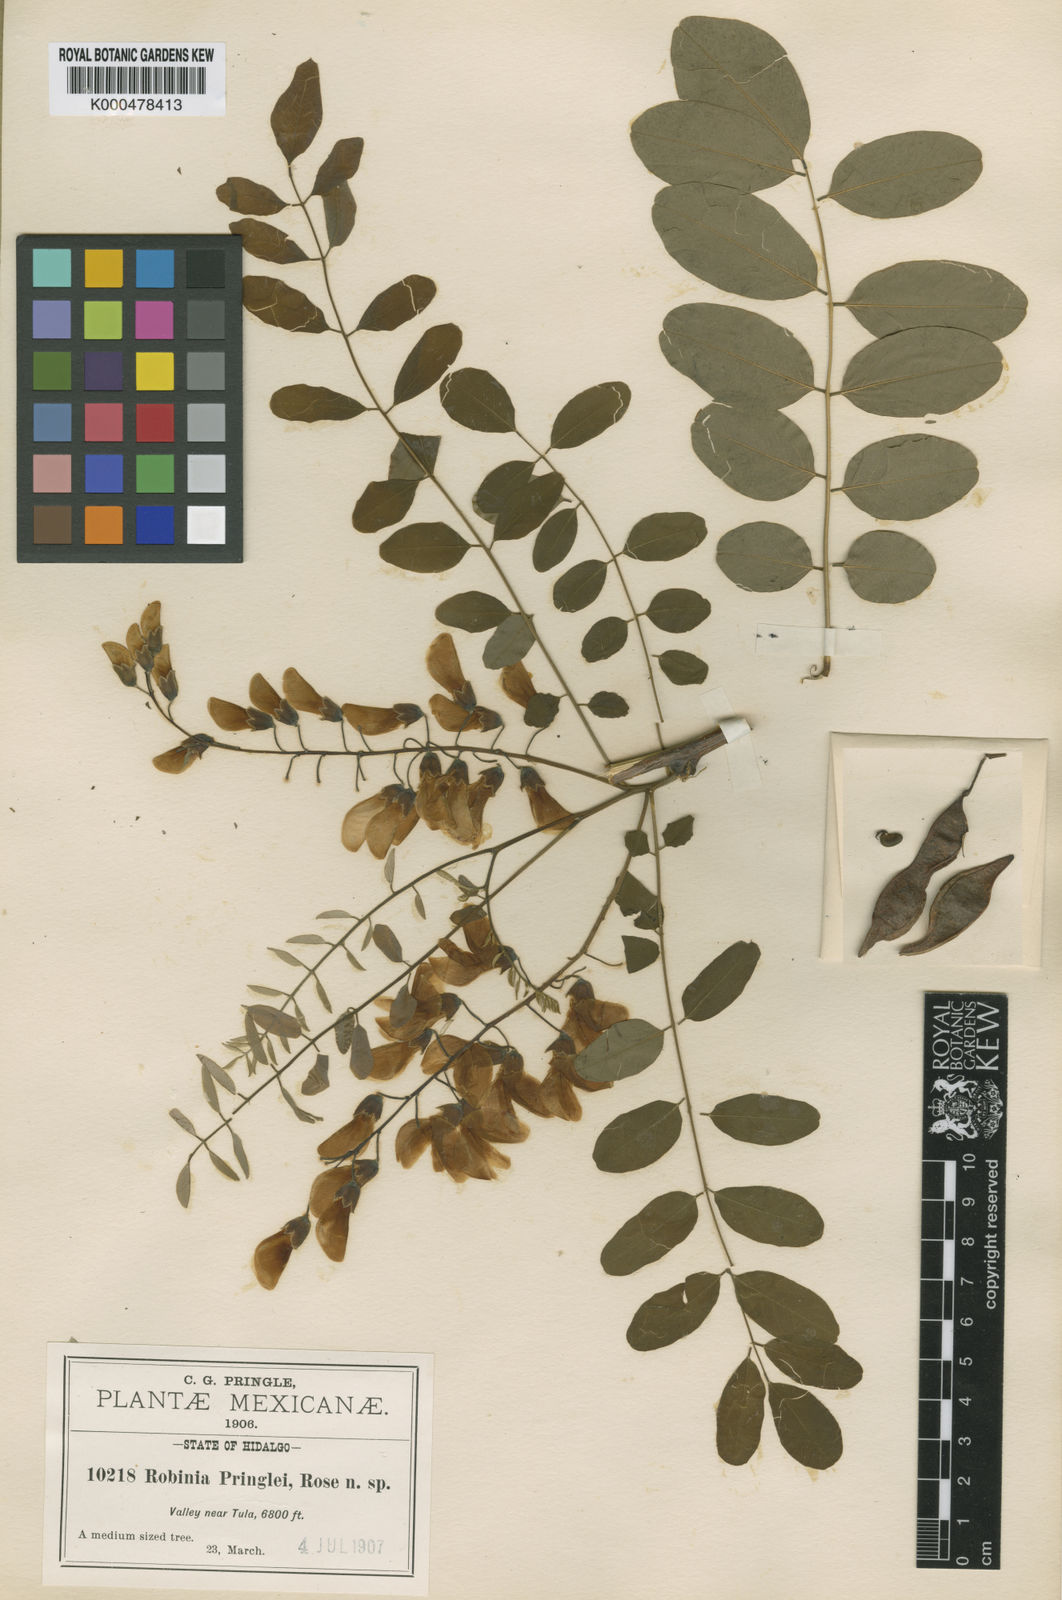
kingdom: Plantae
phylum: Tracheophyta
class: Magnoliopsida
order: Fabales
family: Fabaceae
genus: Robinia
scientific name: Robinia pseudoacacia
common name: Black locust
